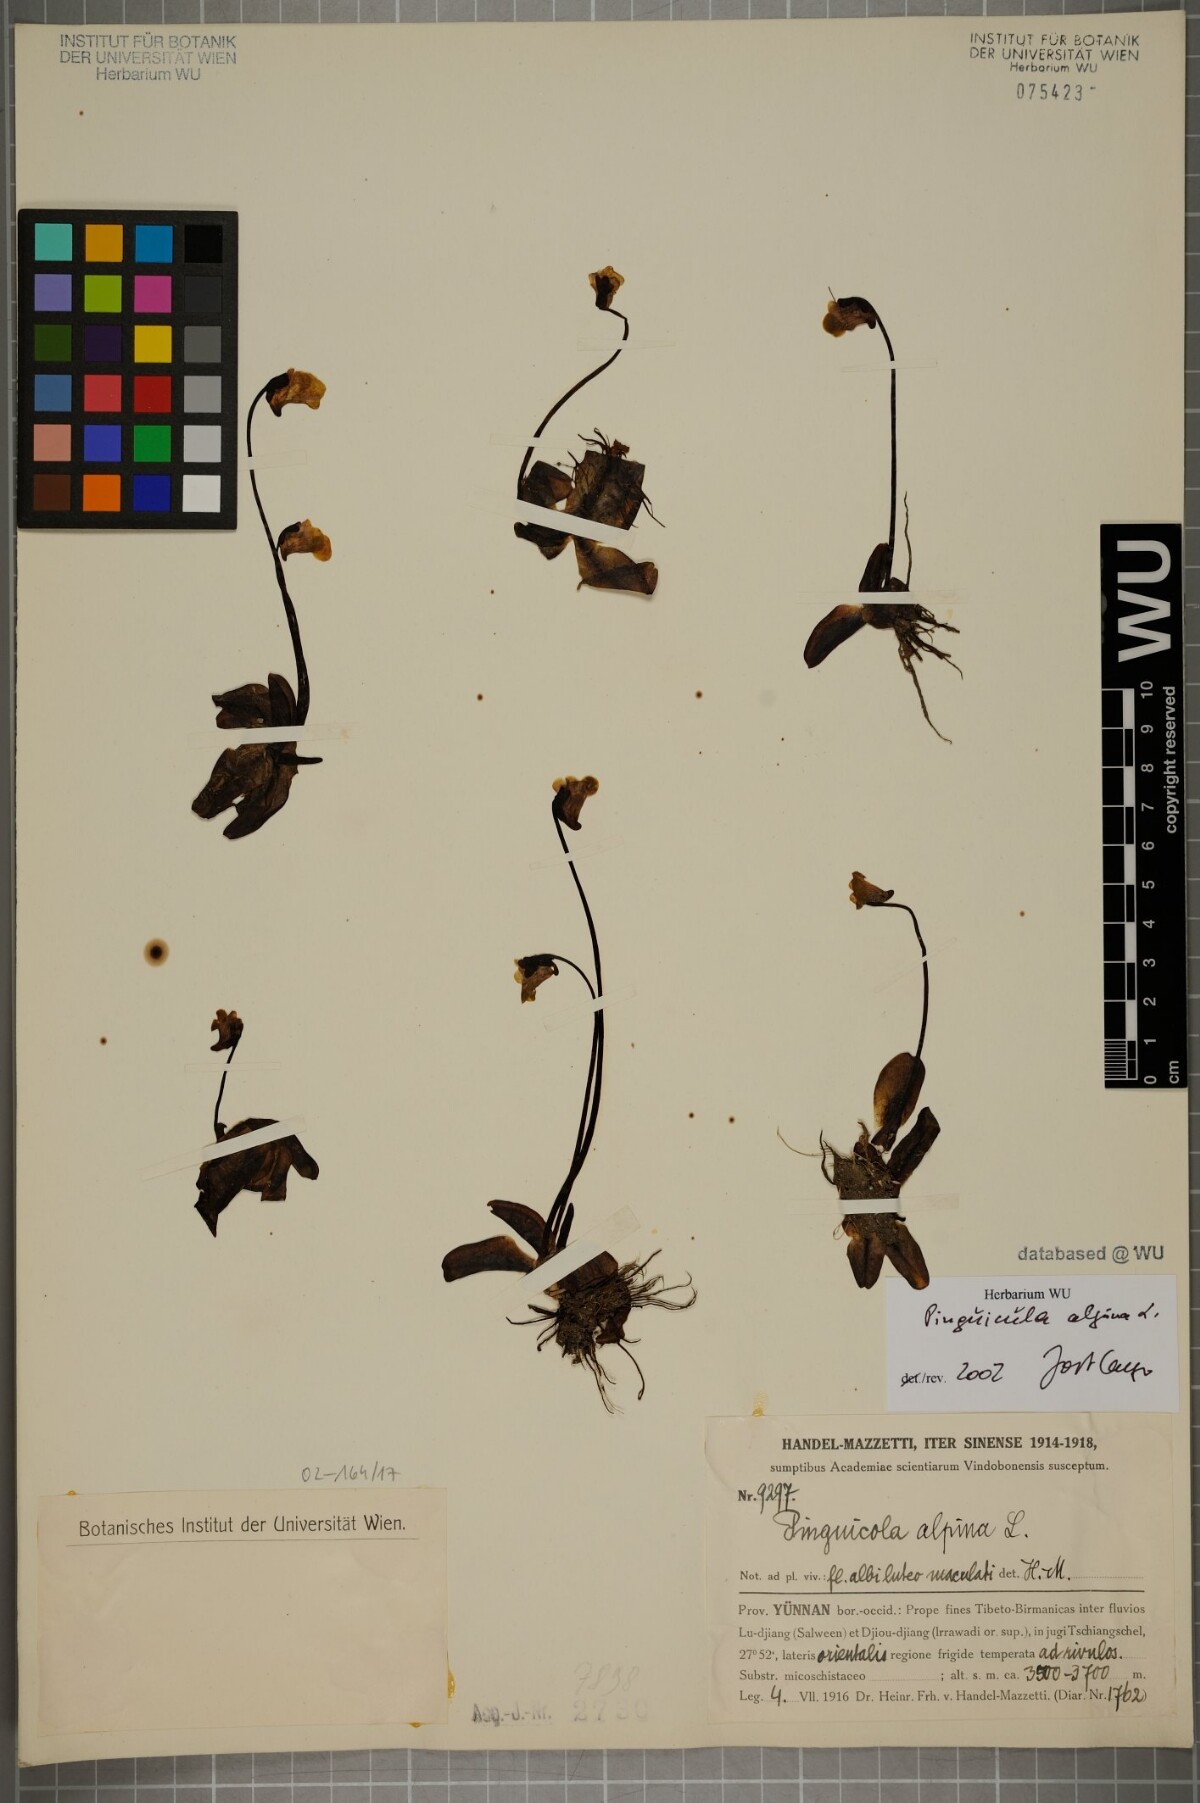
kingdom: Plantae
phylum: Tracheophyta
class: Magnoliopsida
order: Lamiales
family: Lentibulariaceae
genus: Pinguicula
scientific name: Pinguicula alpina
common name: Alpine butterwort
